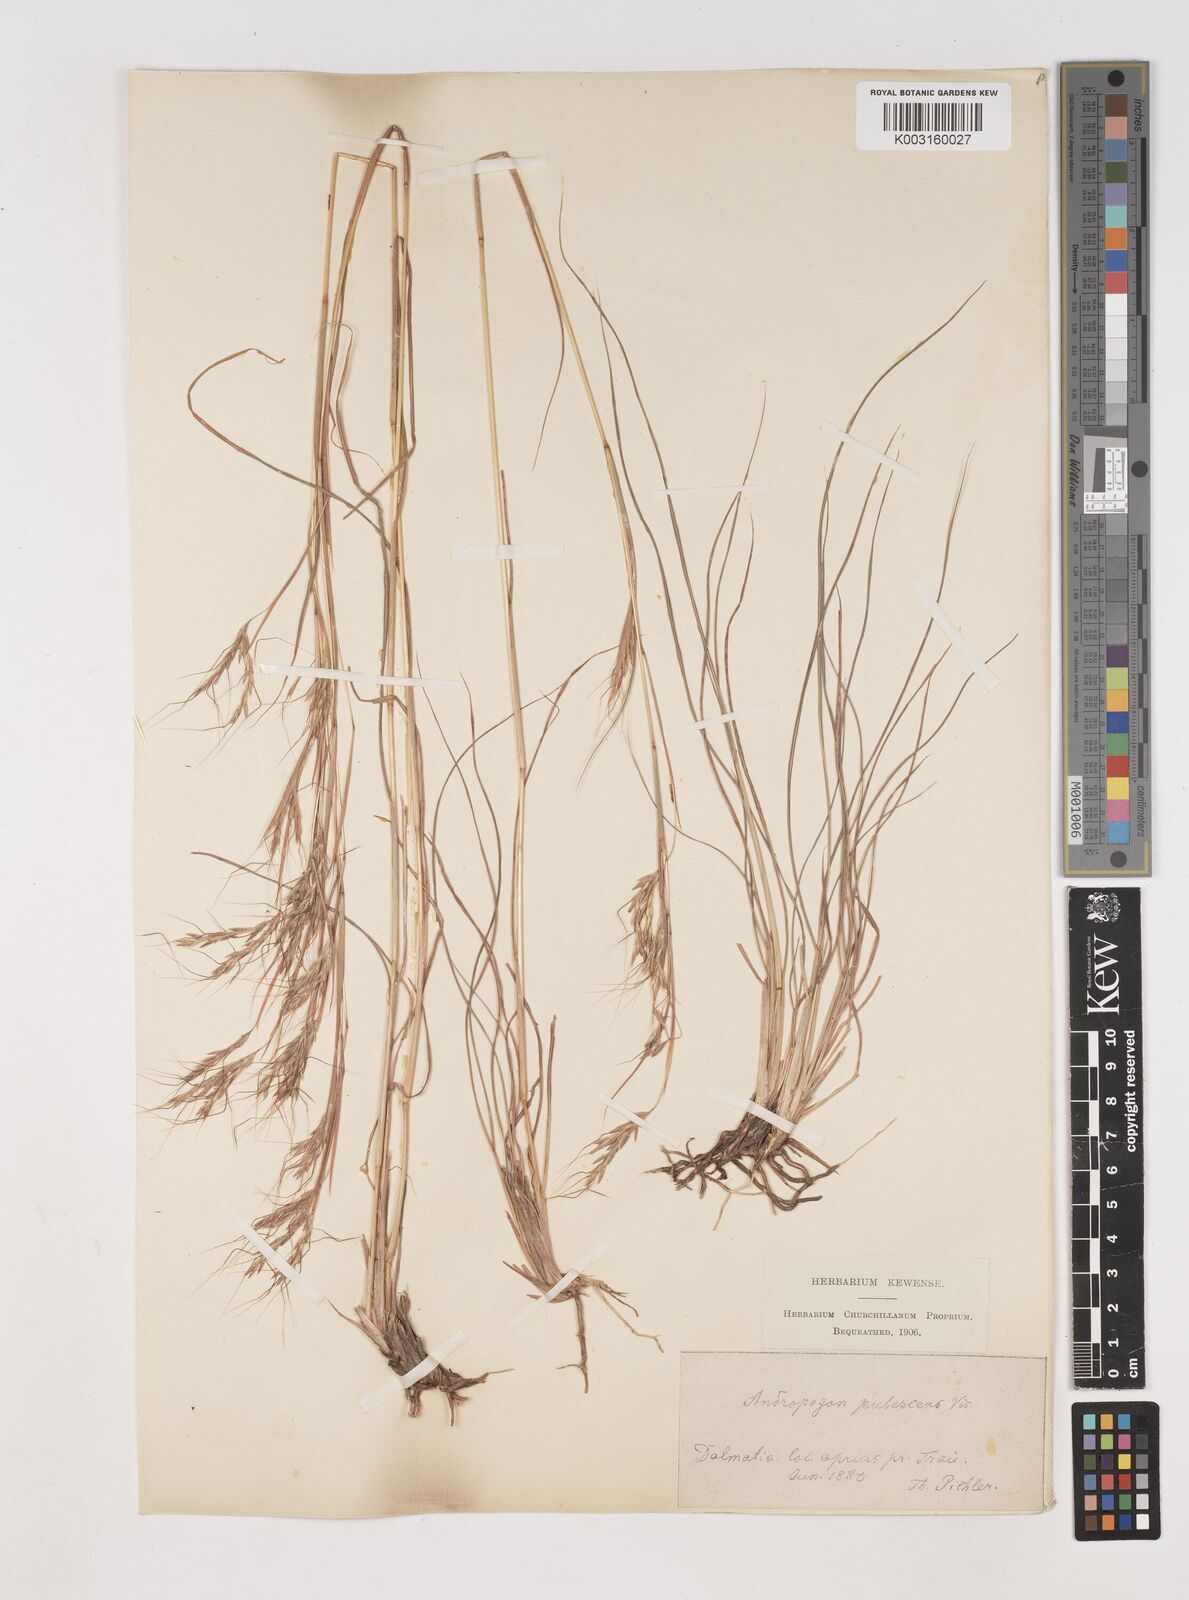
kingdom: Plantae
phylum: Tracheophyta
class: Liliopsida
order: Poales
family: Poaceae
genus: Hyparrhenia
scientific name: Hyparrhenia hirta
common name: Thatching grass
